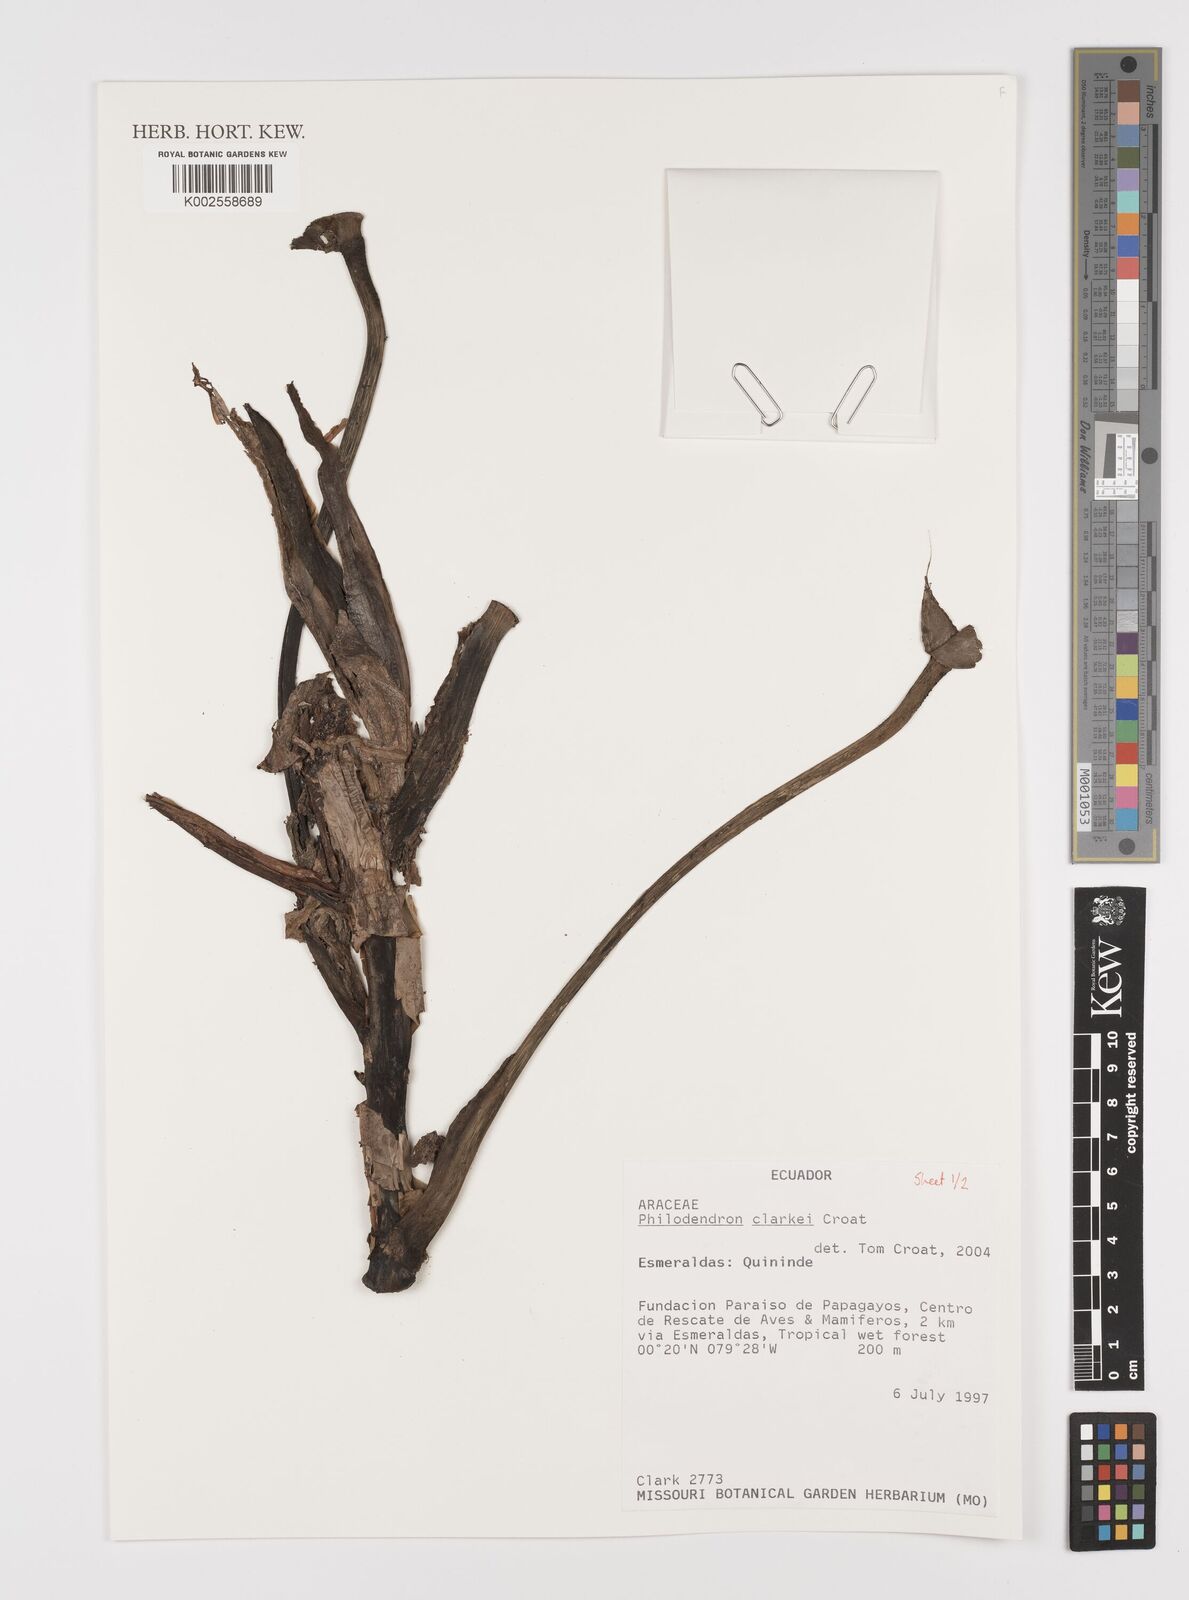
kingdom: Plantae
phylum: Tracheophyta
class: Liliopsida
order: Alismatales
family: Araceae
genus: Philodendron
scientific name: Philodendron clarkei
